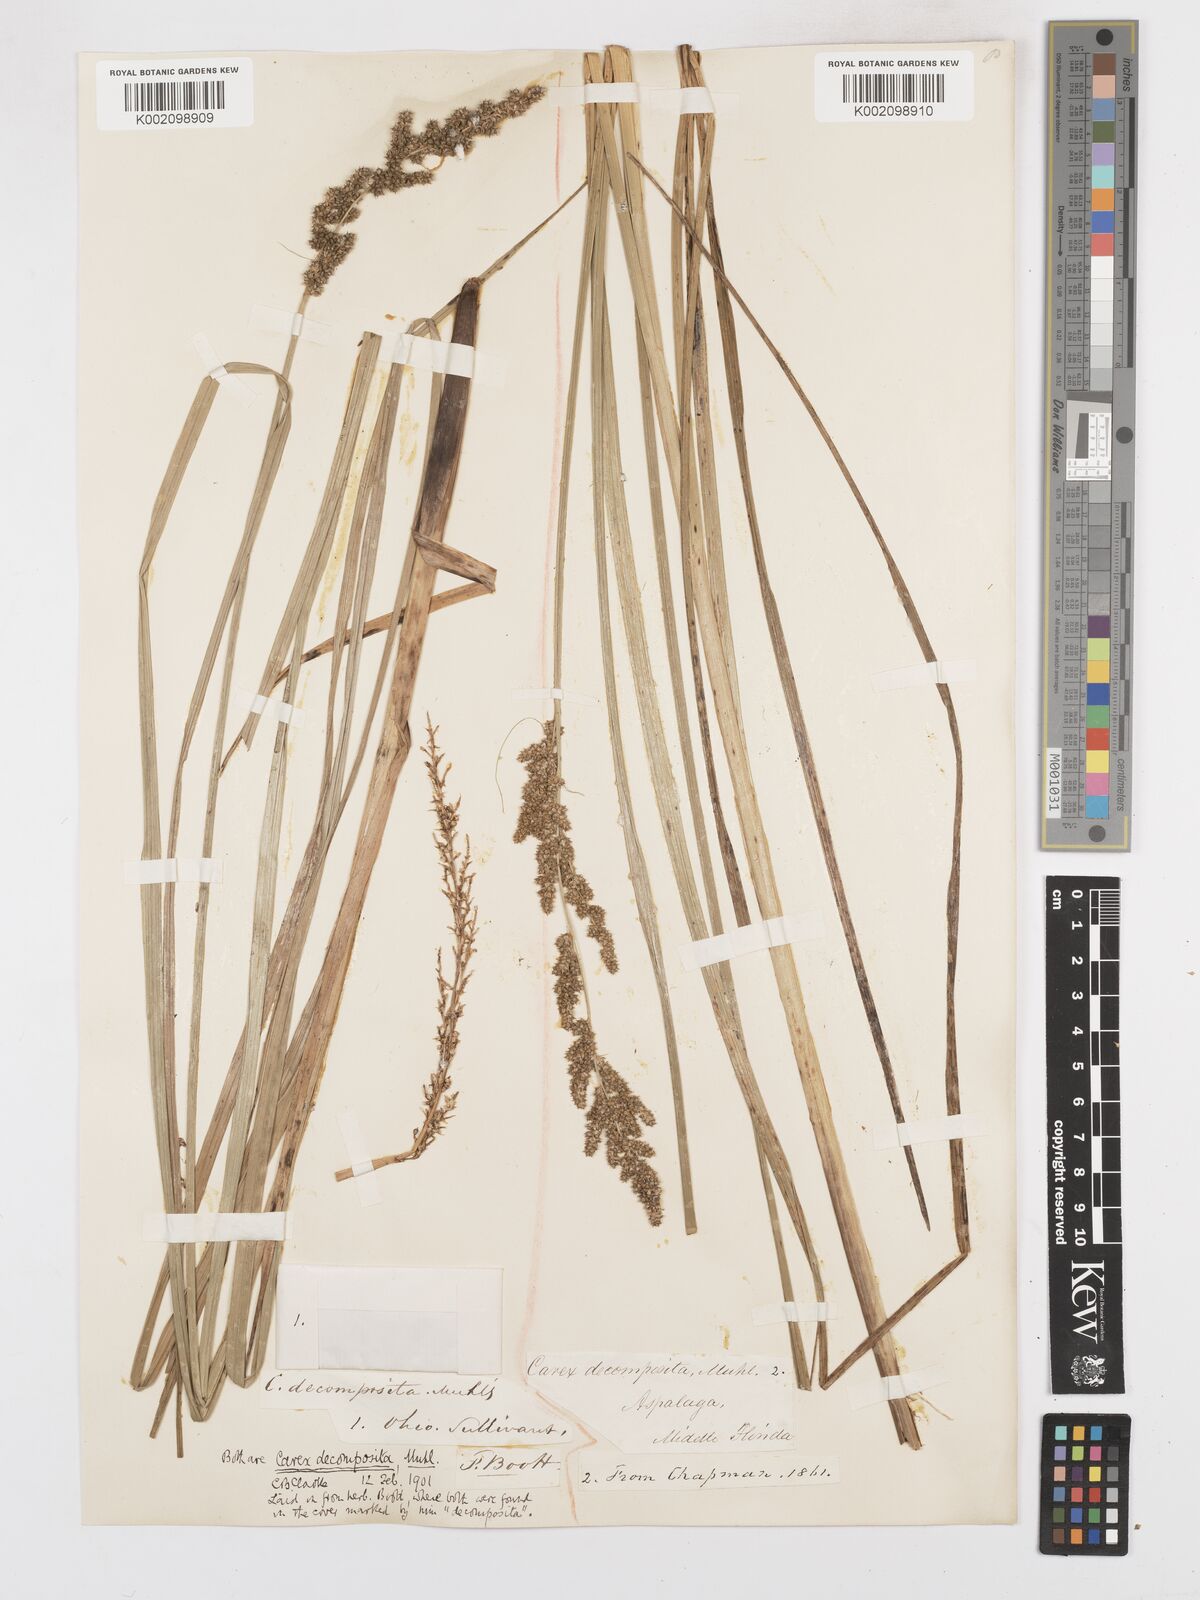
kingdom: Plantae
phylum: Tracheophyta
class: Liliopsida
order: Poales
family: Cyperaceae
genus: Carex
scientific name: Carex decomposita
